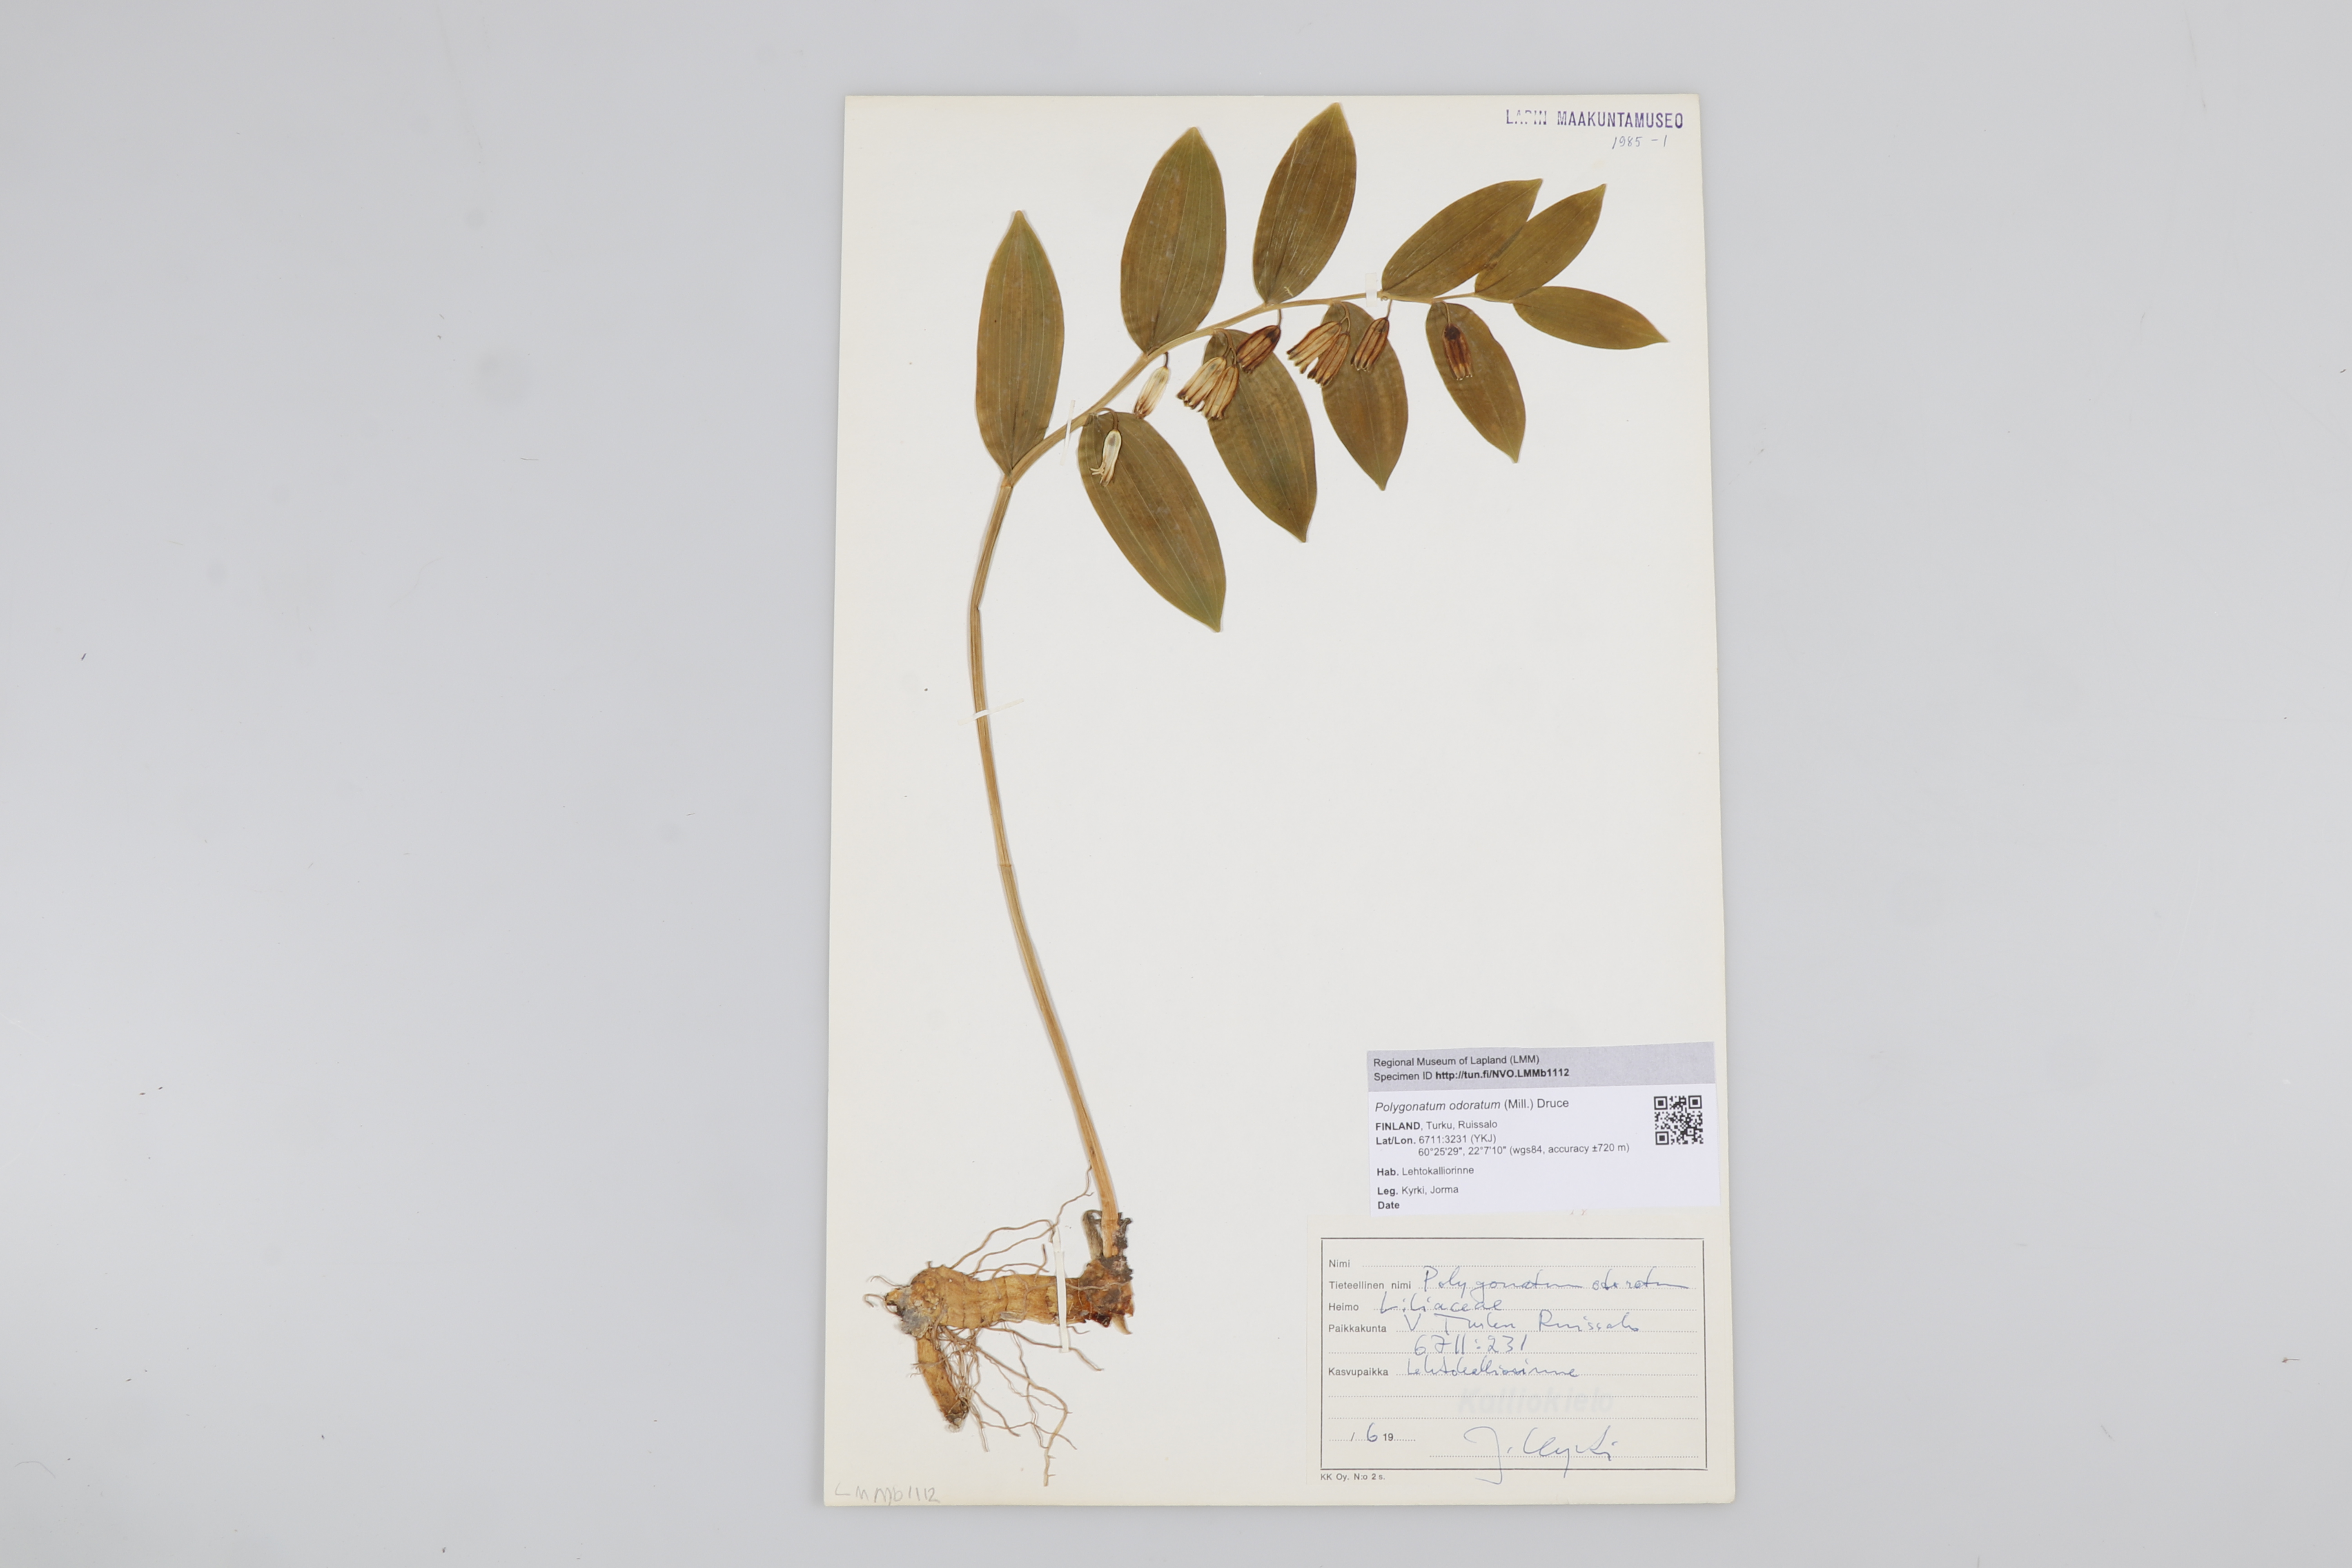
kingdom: Plantae
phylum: Tracheophyta
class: Liliopsida
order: Asparagales
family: Asparagaceae
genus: Polygonatum
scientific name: Polygonatum odoratum
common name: Angular solomon's-seal
